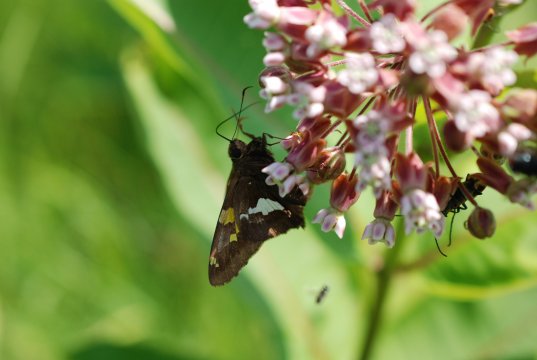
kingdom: Animalia
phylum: Arthropoda
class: Insecta
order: Lepidoptera
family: Hesperiidae
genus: Epargyreus
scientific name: Epargyreus clarus
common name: Silver-spotted Skipper
